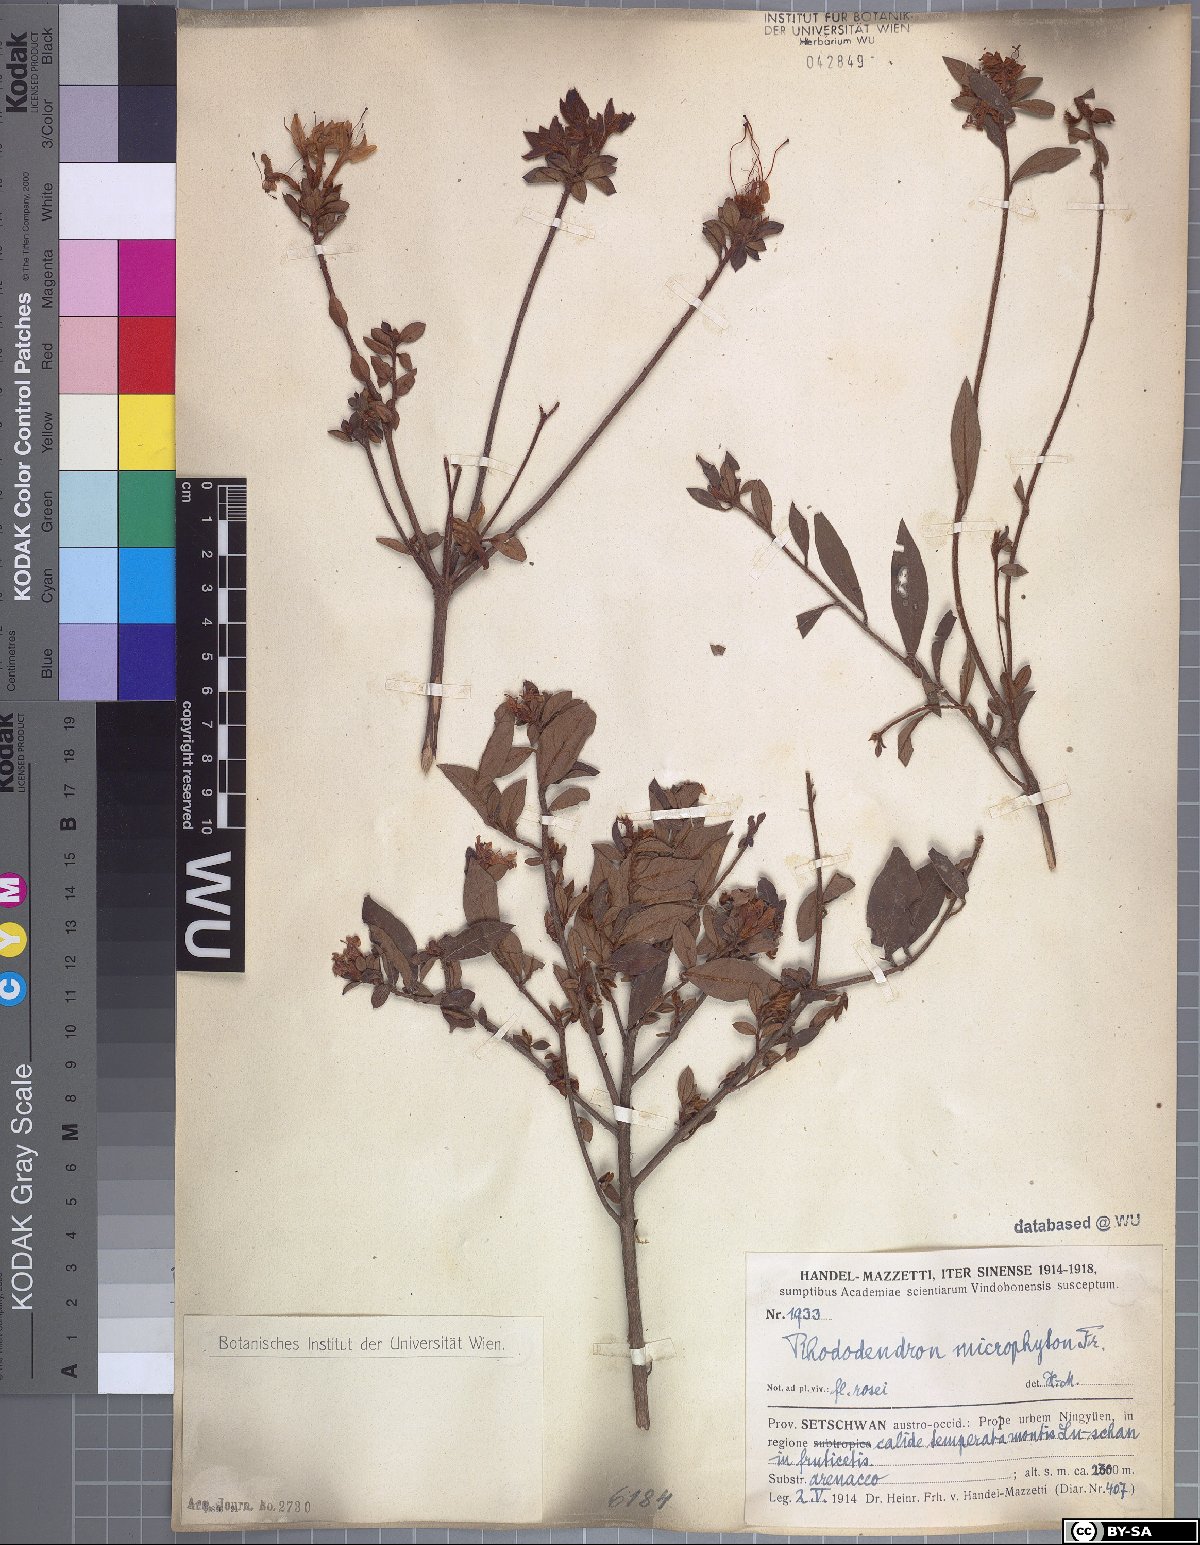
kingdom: Plantae
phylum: Tracheophyta
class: Magnoliopsida
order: Ericales
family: Ericaceae
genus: Rhododendron
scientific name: Rhododendron microphyton
